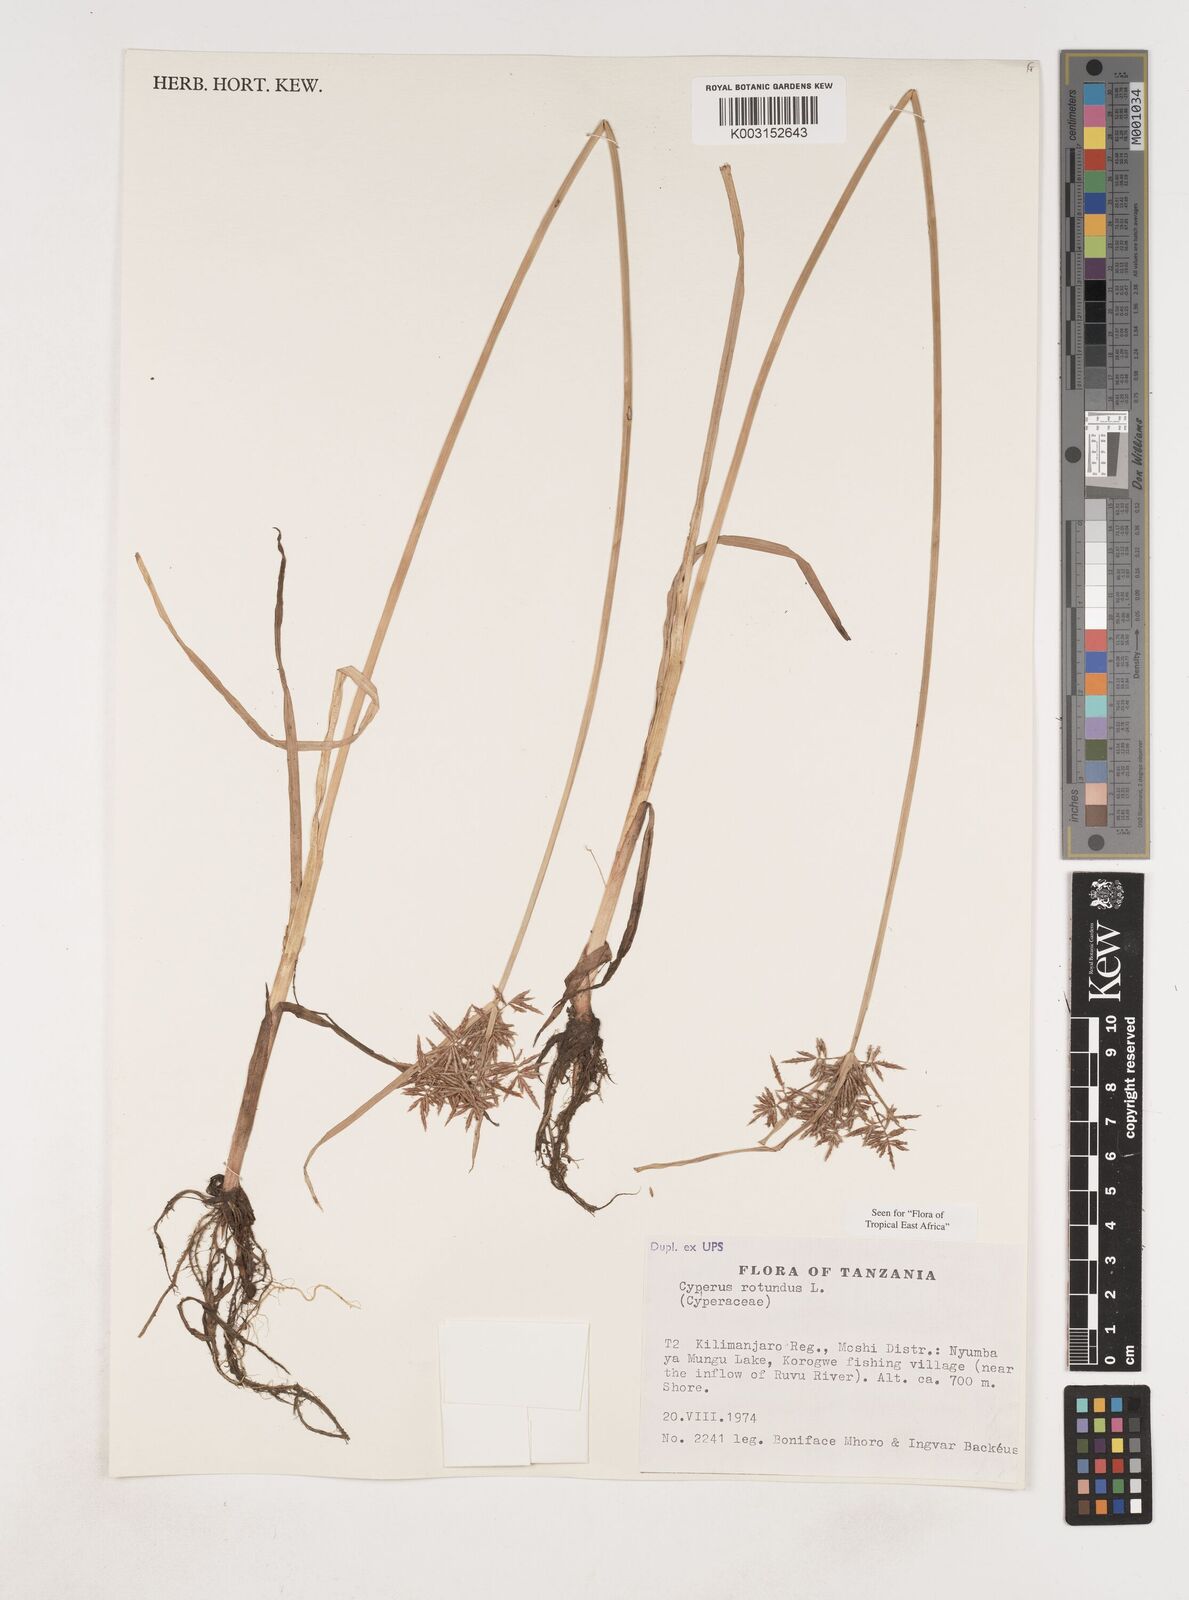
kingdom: Plantae
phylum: Tracheophyta
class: Liliopsida
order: Poales
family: Cyperaceae
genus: Cyperus
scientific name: Cyperus rotundus
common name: Nutgrass
